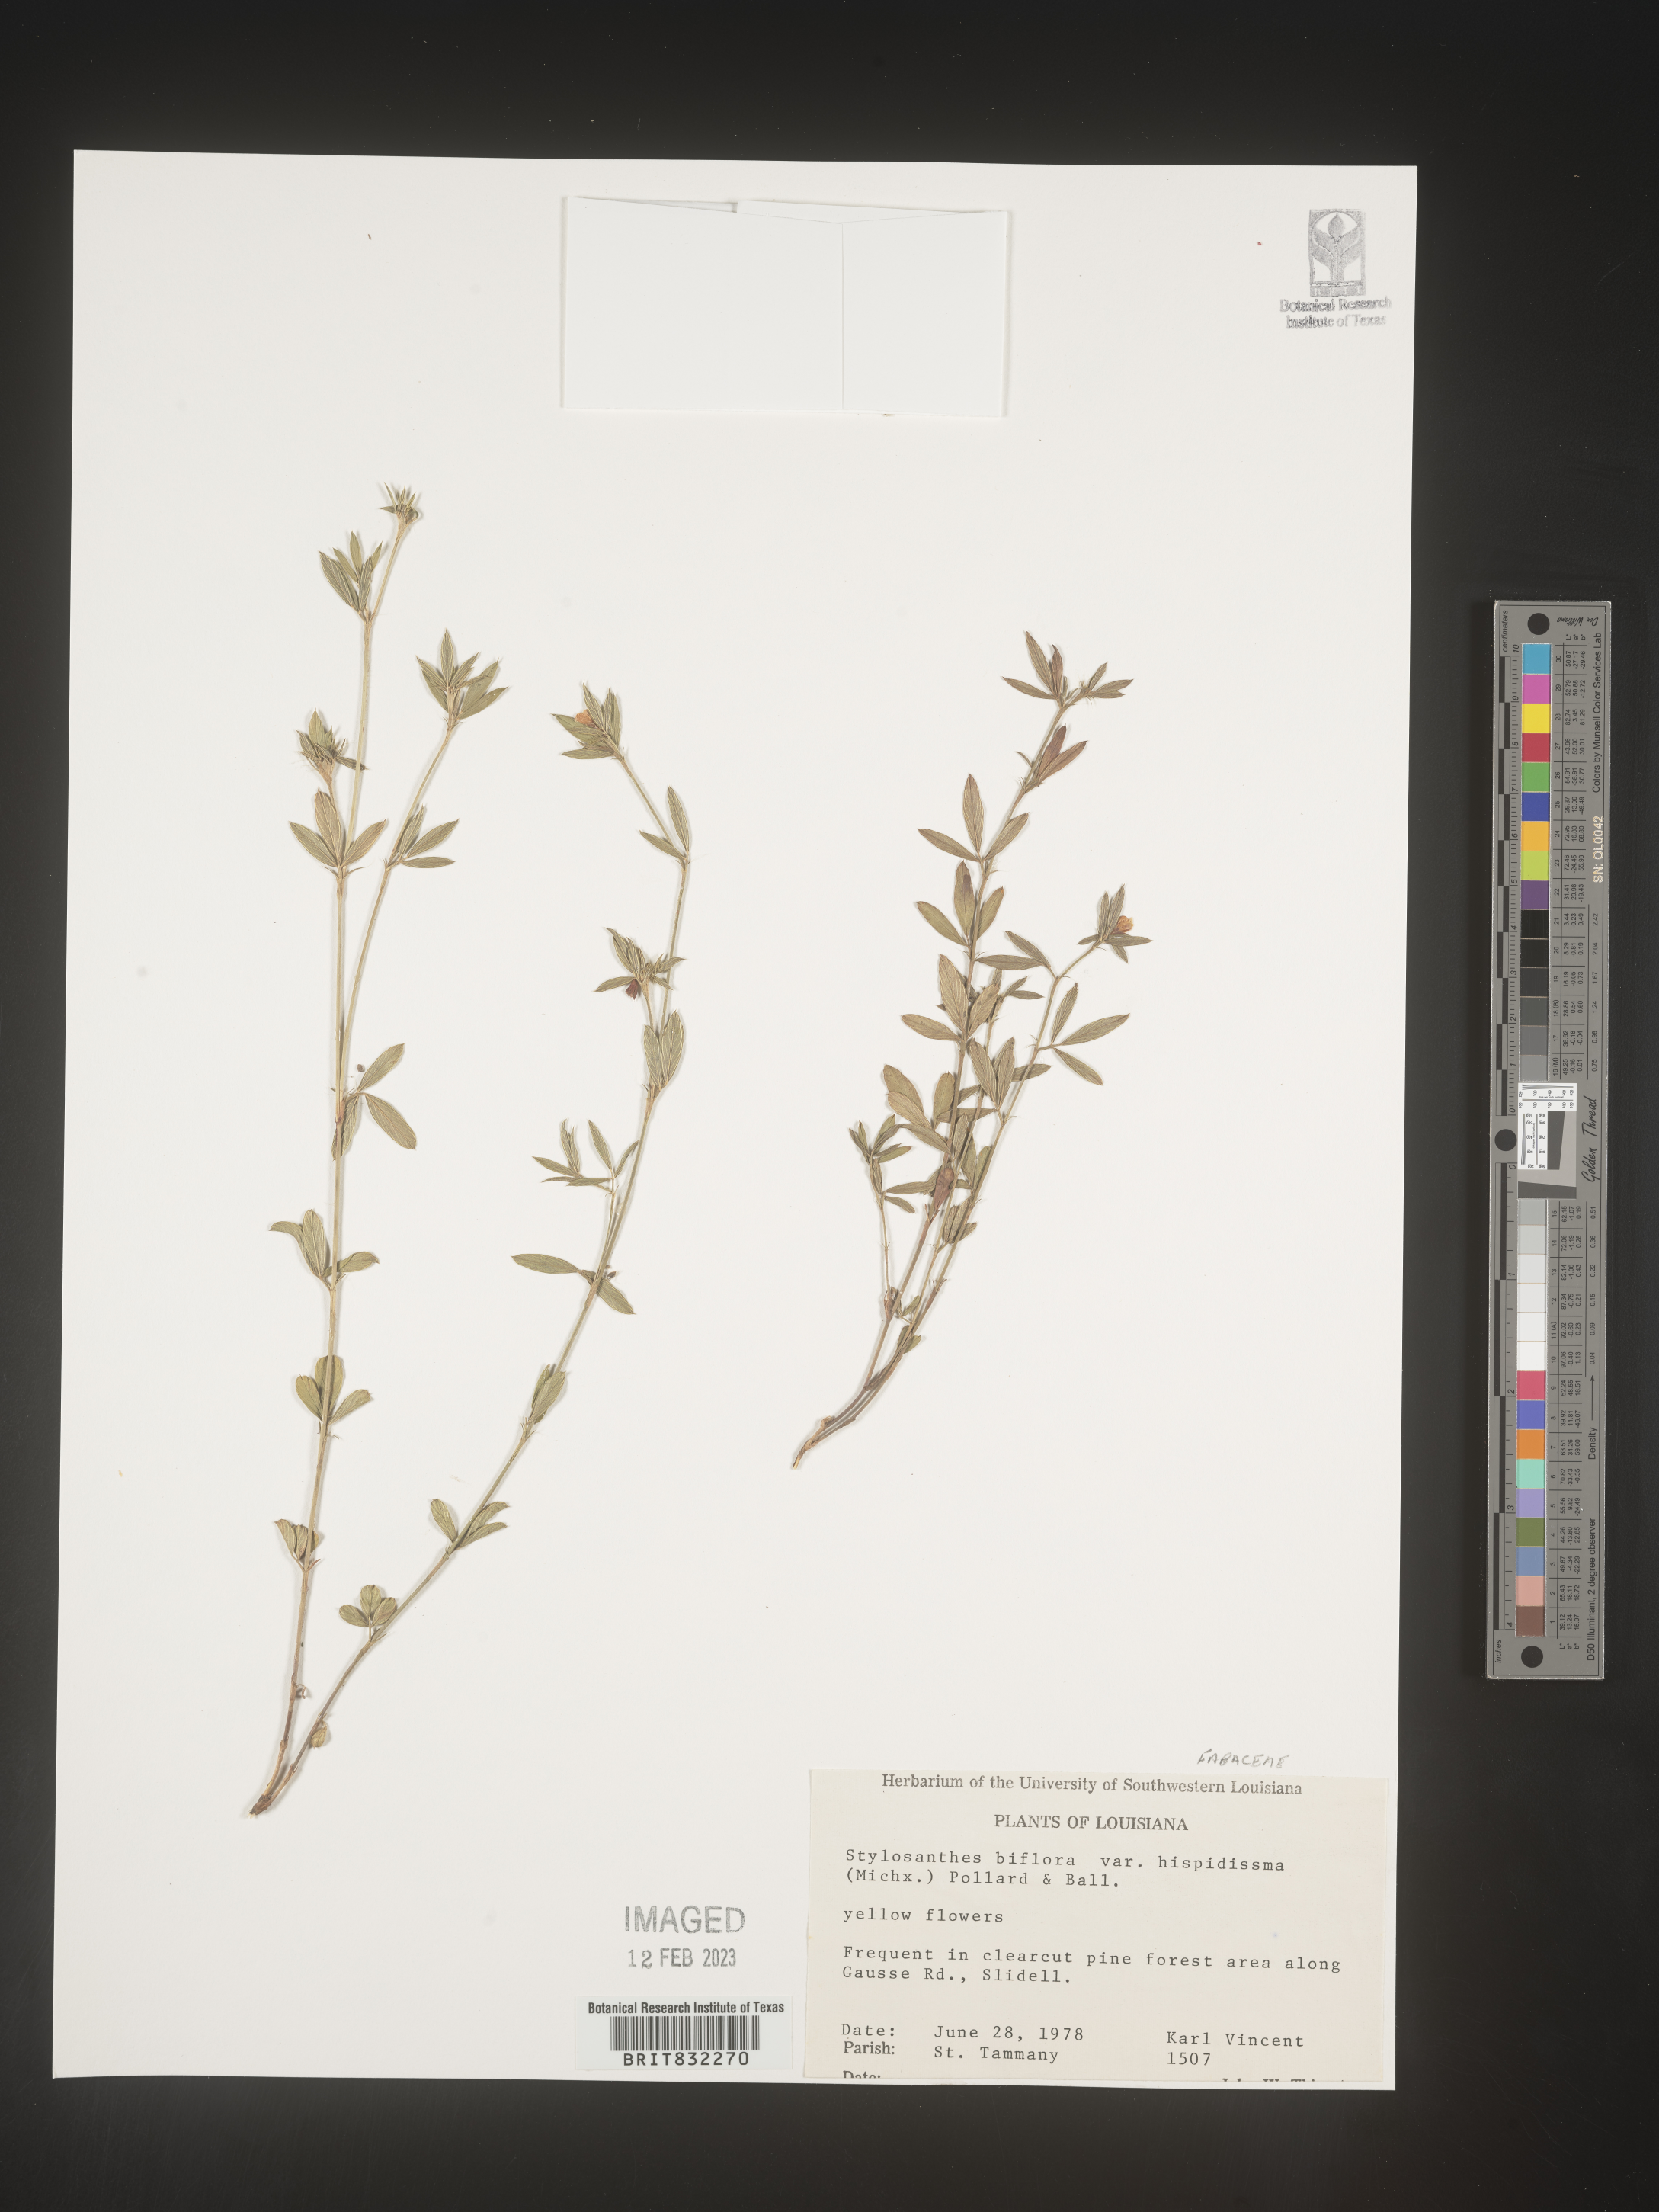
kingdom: Plantae
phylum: Tracheophyta
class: Magnoliopsida
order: Fabales
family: Fabaceae
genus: Stylosanthes
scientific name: Stylosanthes biflora
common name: Two-flower pencil-flower
